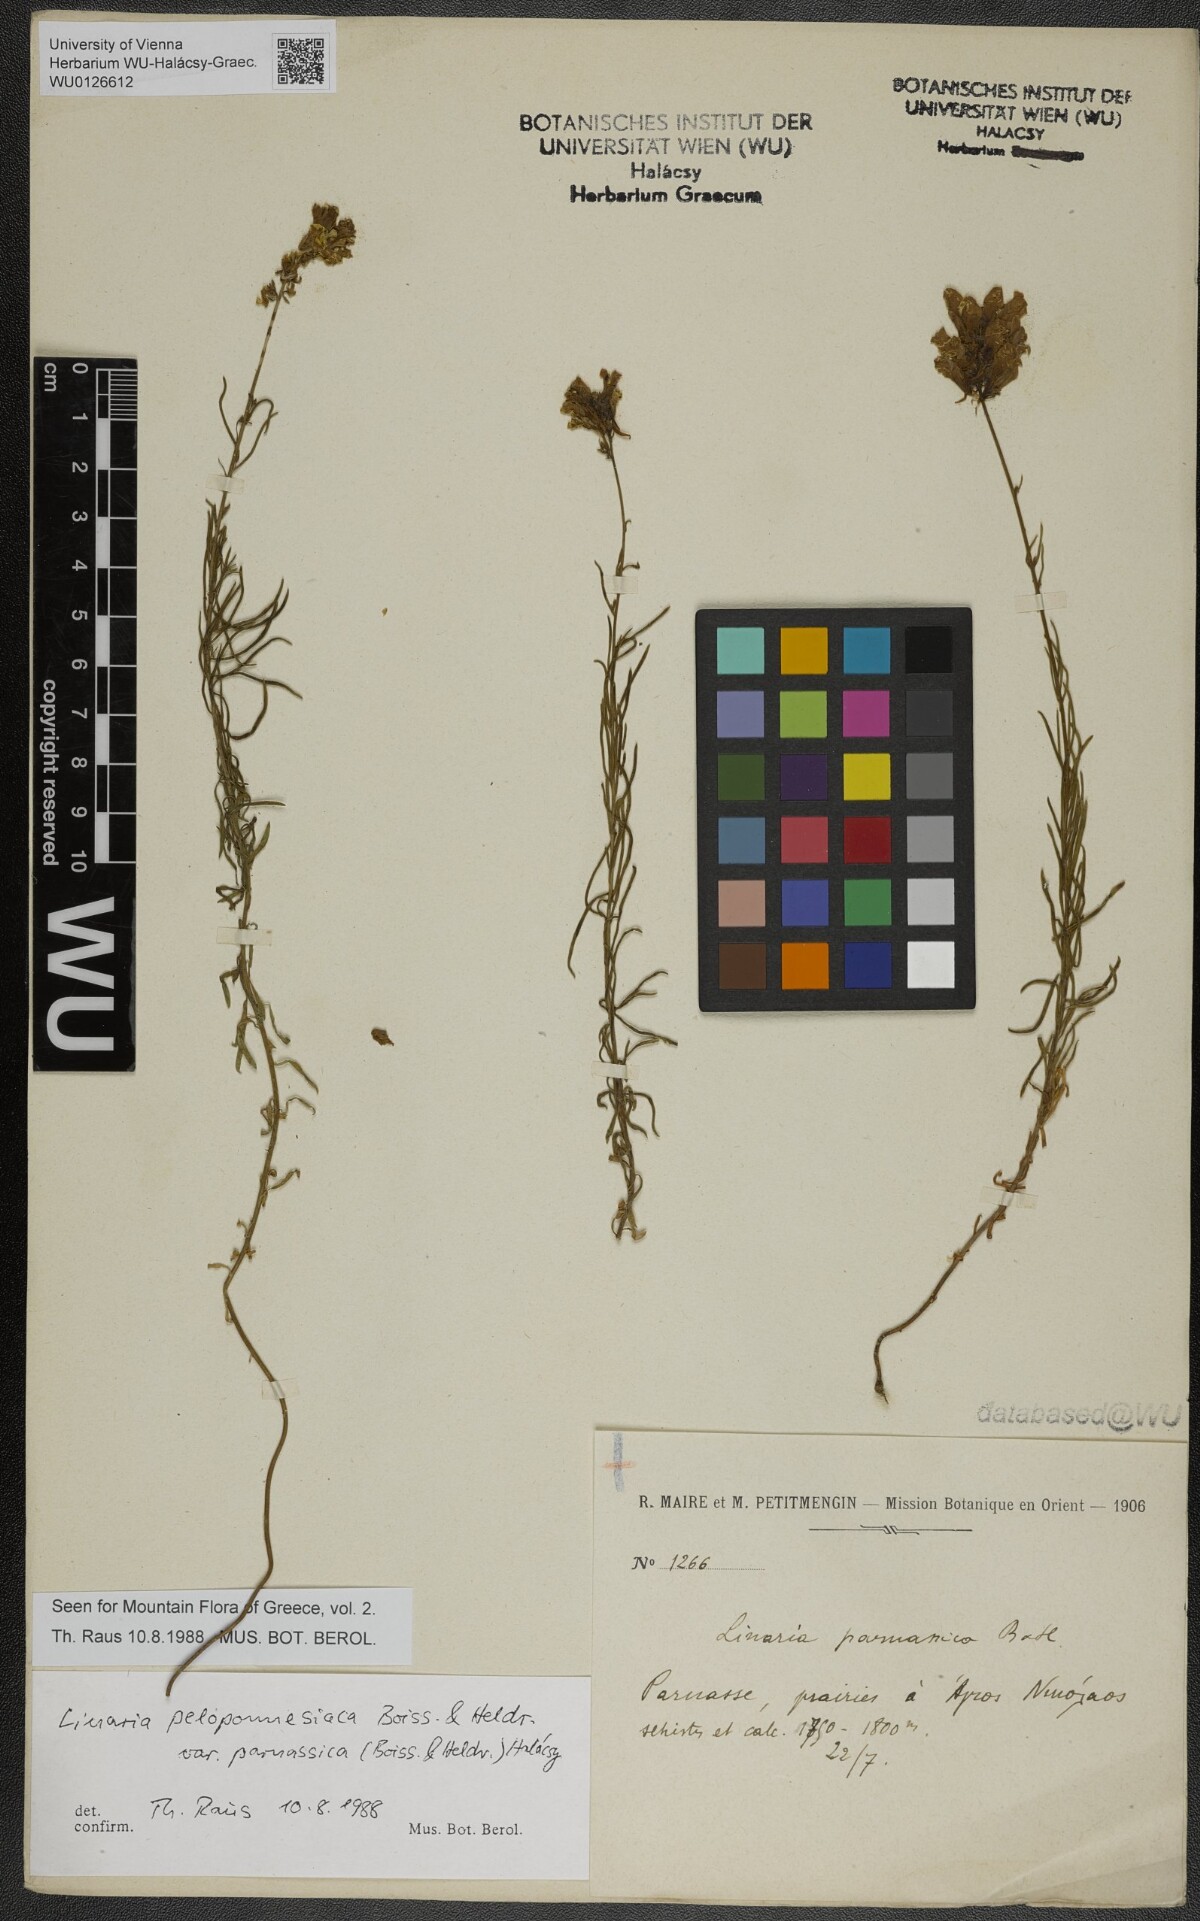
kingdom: Plantae
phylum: Tracheophyta
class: Magnoliopsida
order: Lamiales
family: Plantaginaceae
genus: Linaria
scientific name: Linaria peloponnesiaca
